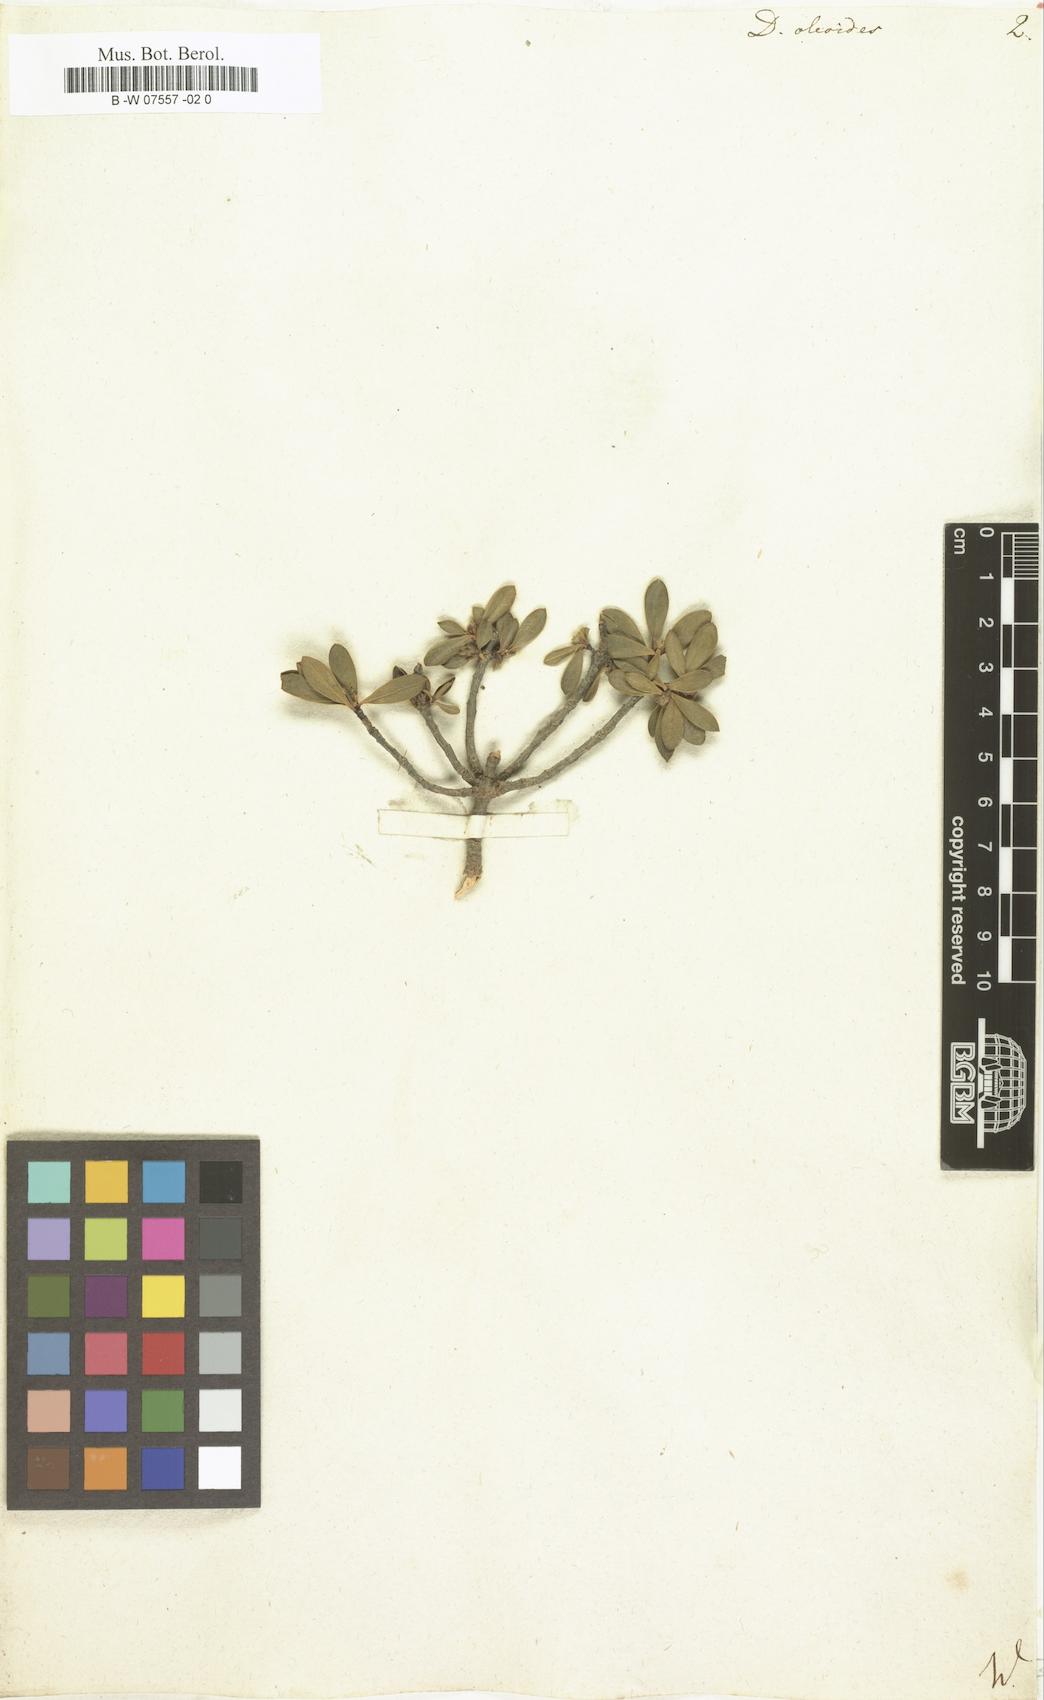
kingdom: Plantae
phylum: Tracheophyta
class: Magnoliopsida
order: Malvales
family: Thymelaeaceae
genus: Daphne
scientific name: Daphne oleoides
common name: Spurge-olive
